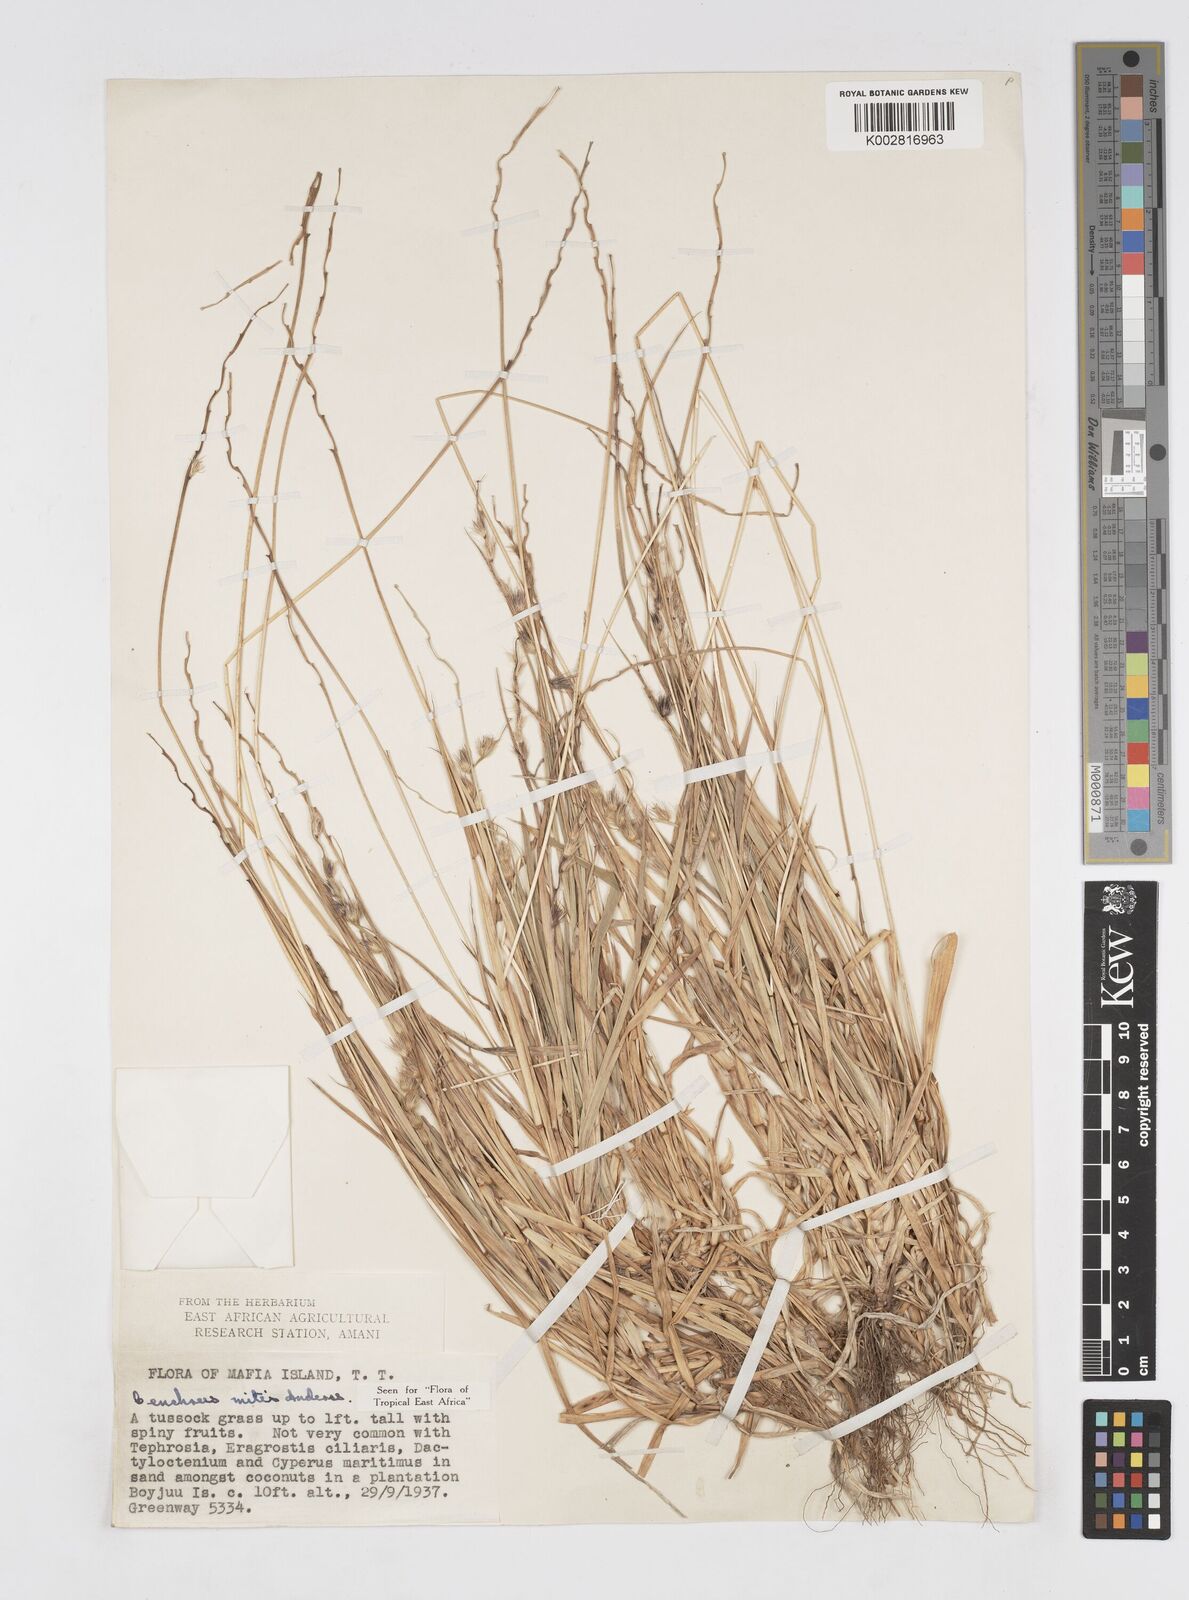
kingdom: Plantae
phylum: Tracheophyta
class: Liliopsida
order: Poales
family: Poaceae
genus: Cenchrus
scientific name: Cenchrus mitis
